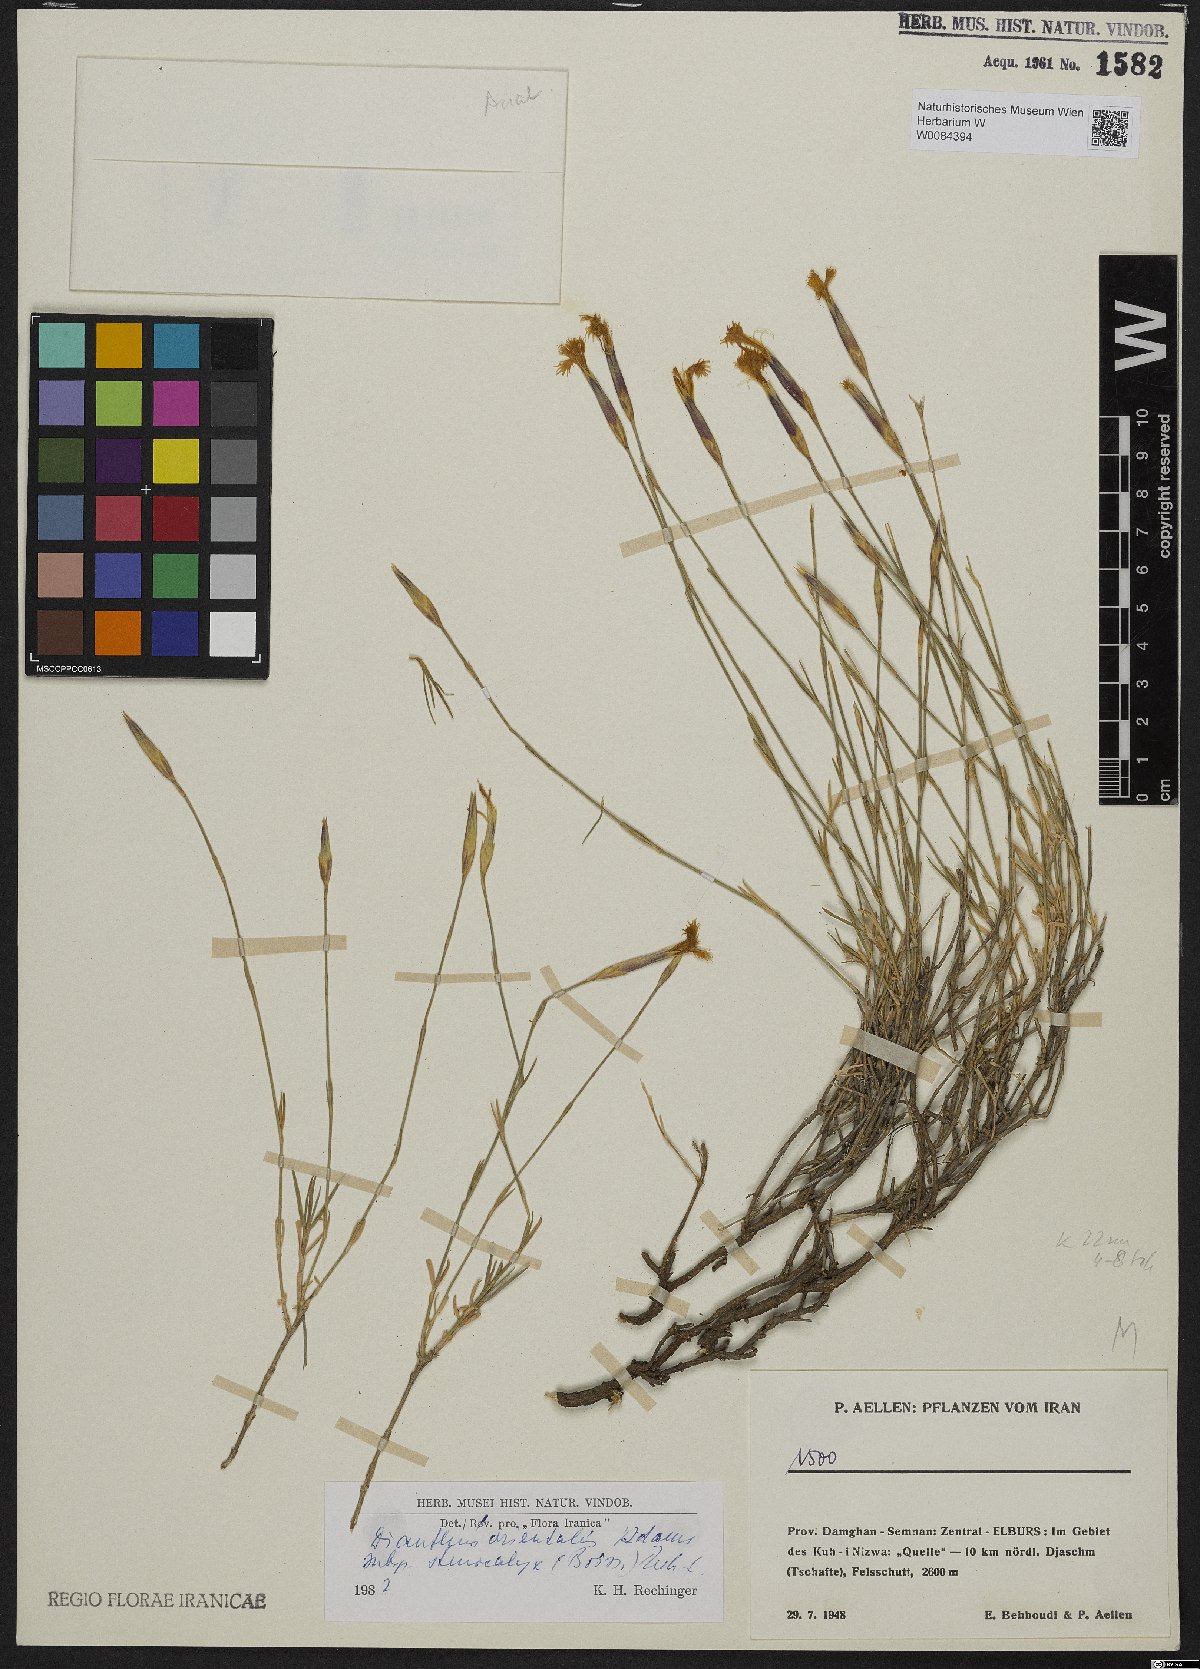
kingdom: Plantae
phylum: Tracheophyta
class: Magnoliopsida
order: Caryophyllales
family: Caryophyllaceae
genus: Dianthus
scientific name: Dianthus orientalis
